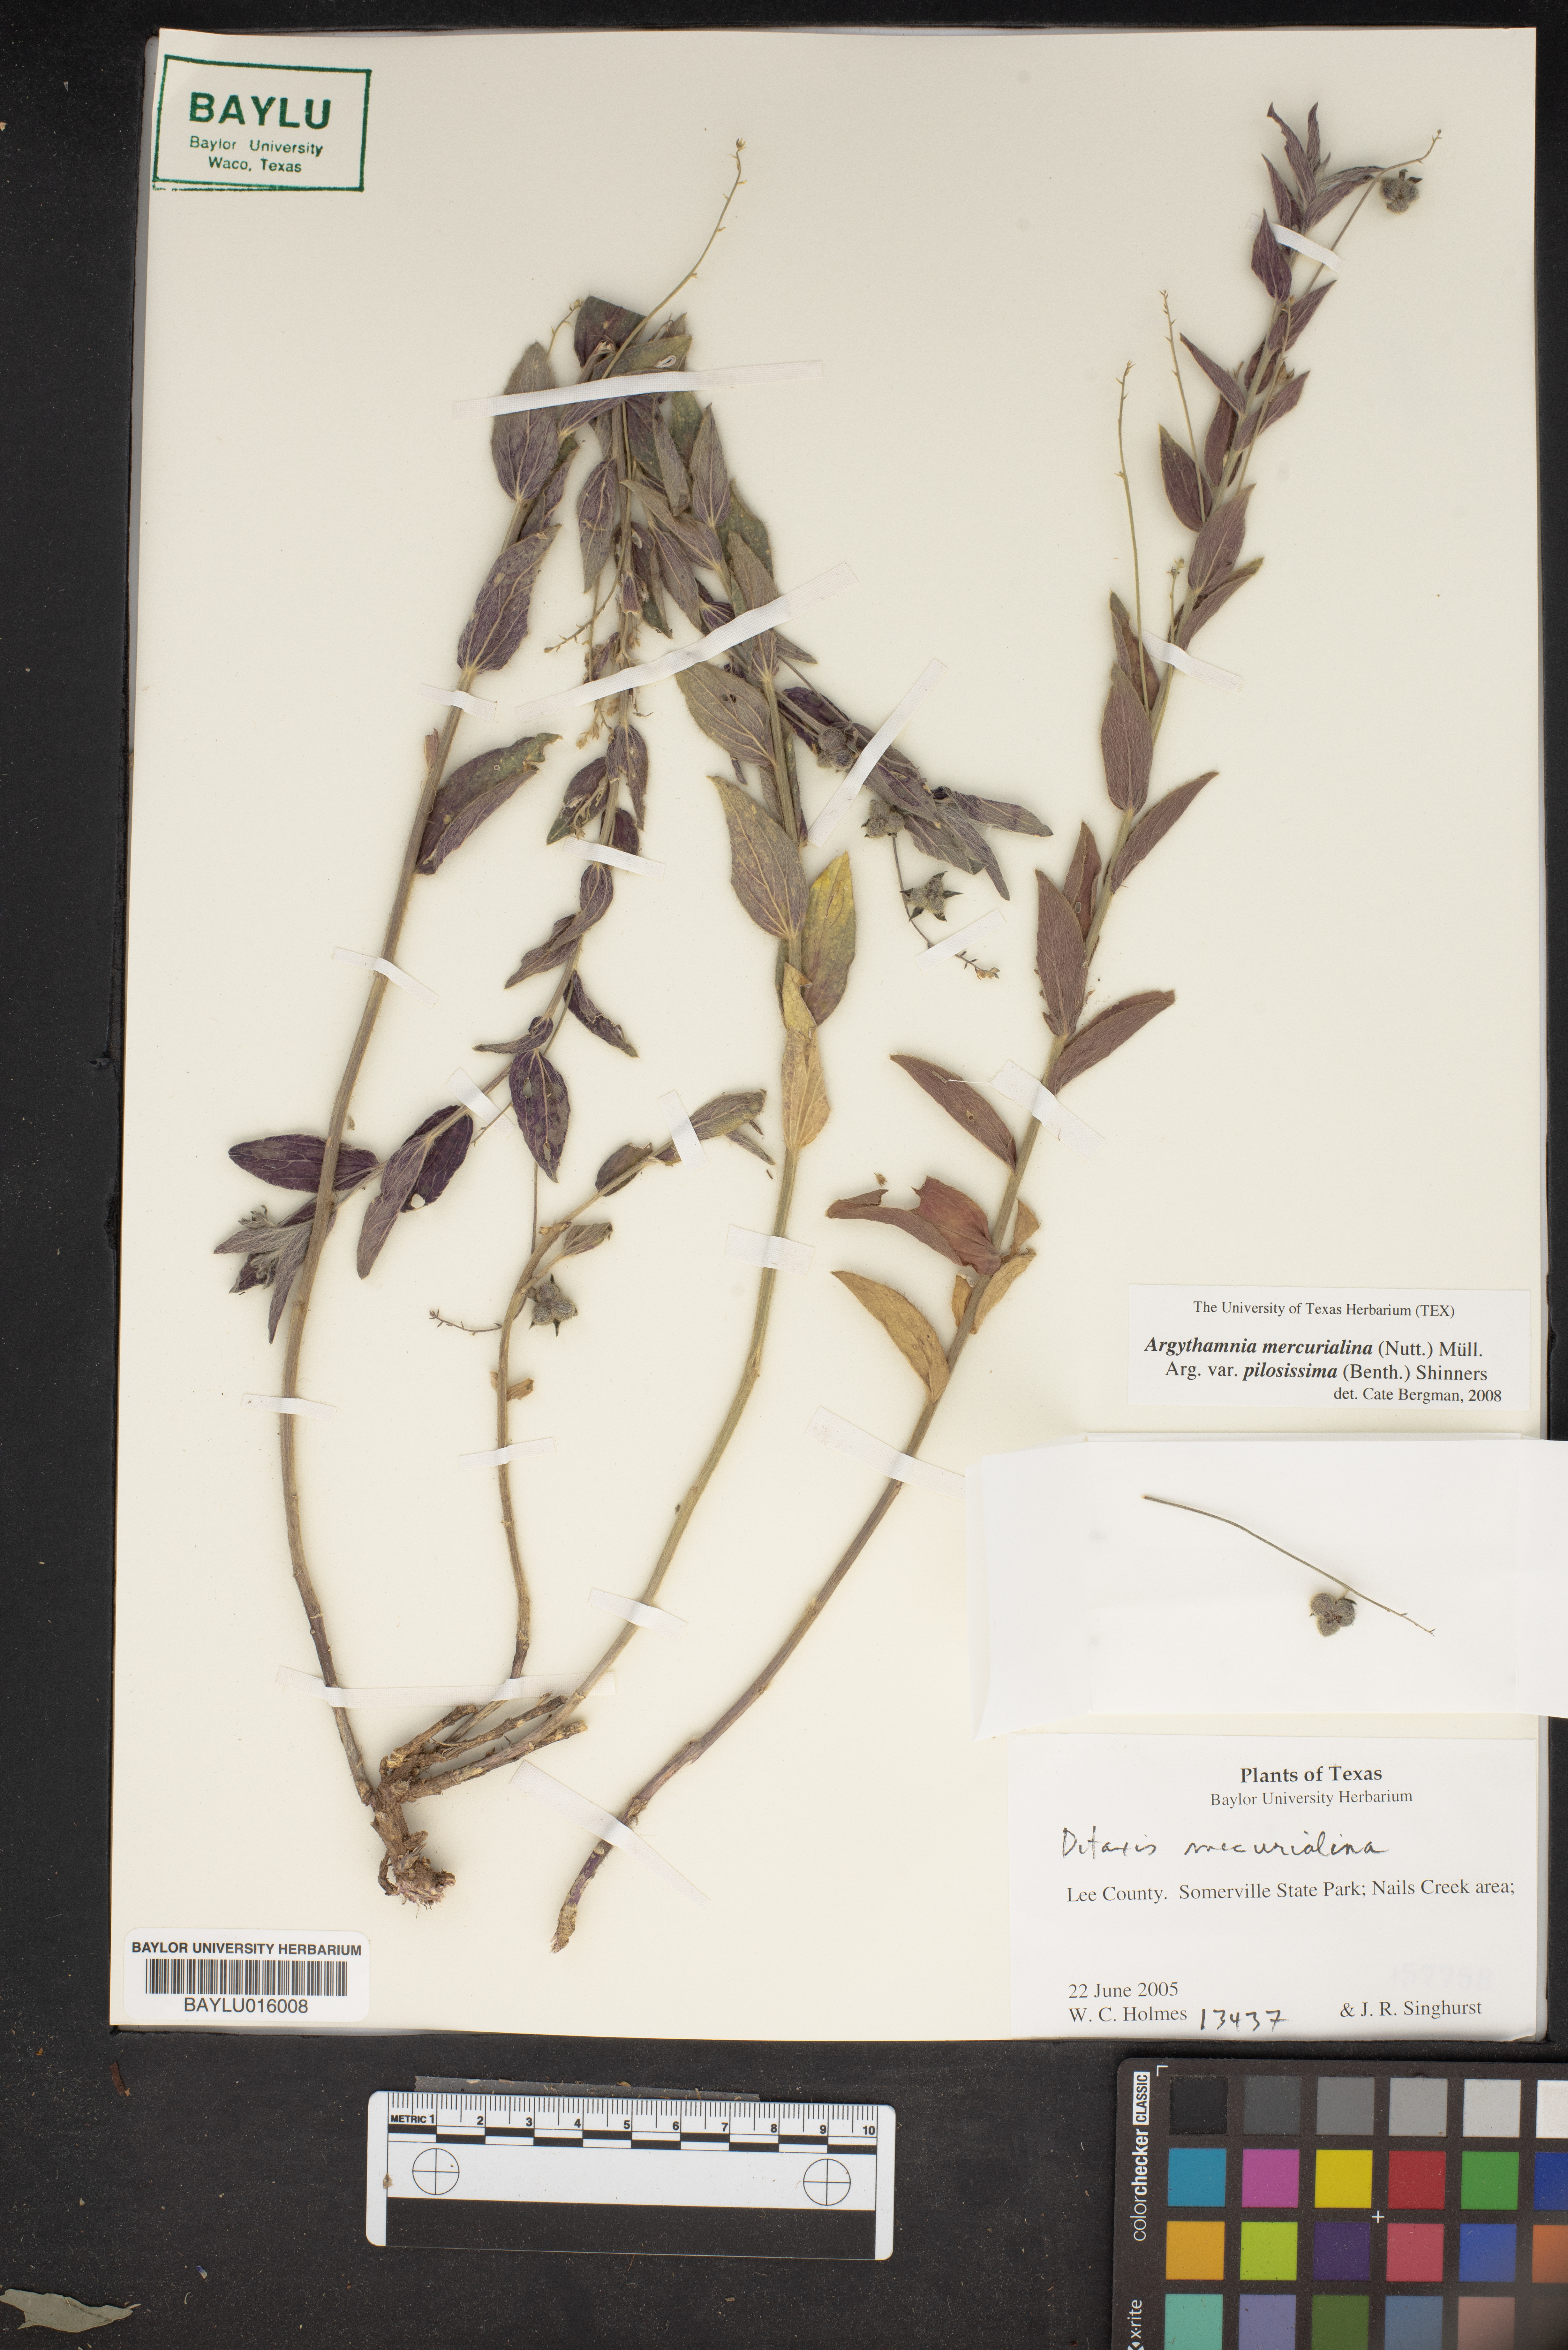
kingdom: Plantae
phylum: Tracheophyta
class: Magnoliopsida
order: Malpighiales
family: Euphorbiaceae
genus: Ditaxis
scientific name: Ditaxis pilosissima
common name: Tall silverbush
